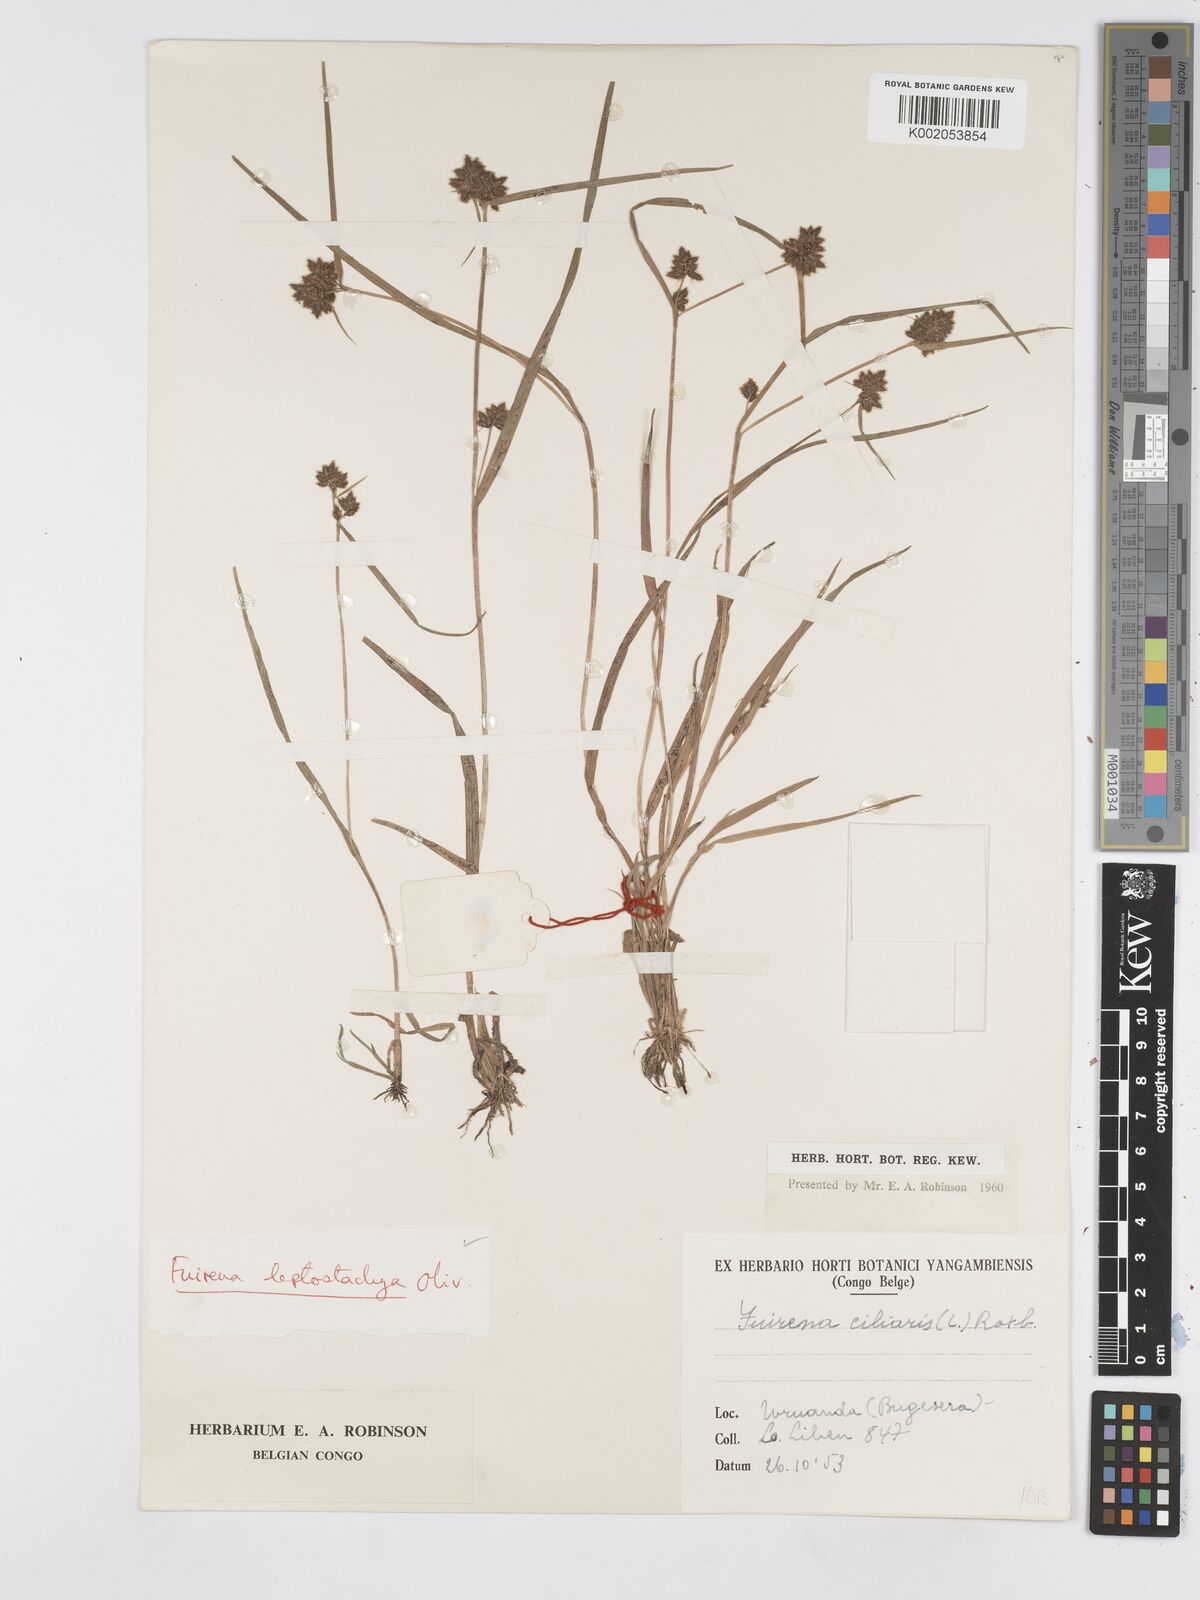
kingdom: Plantae
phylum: Tracheophyta
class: Liliopsida
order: Poales
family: Cyperaceae
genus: Fuirena
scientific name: Fuirena leptostachya
